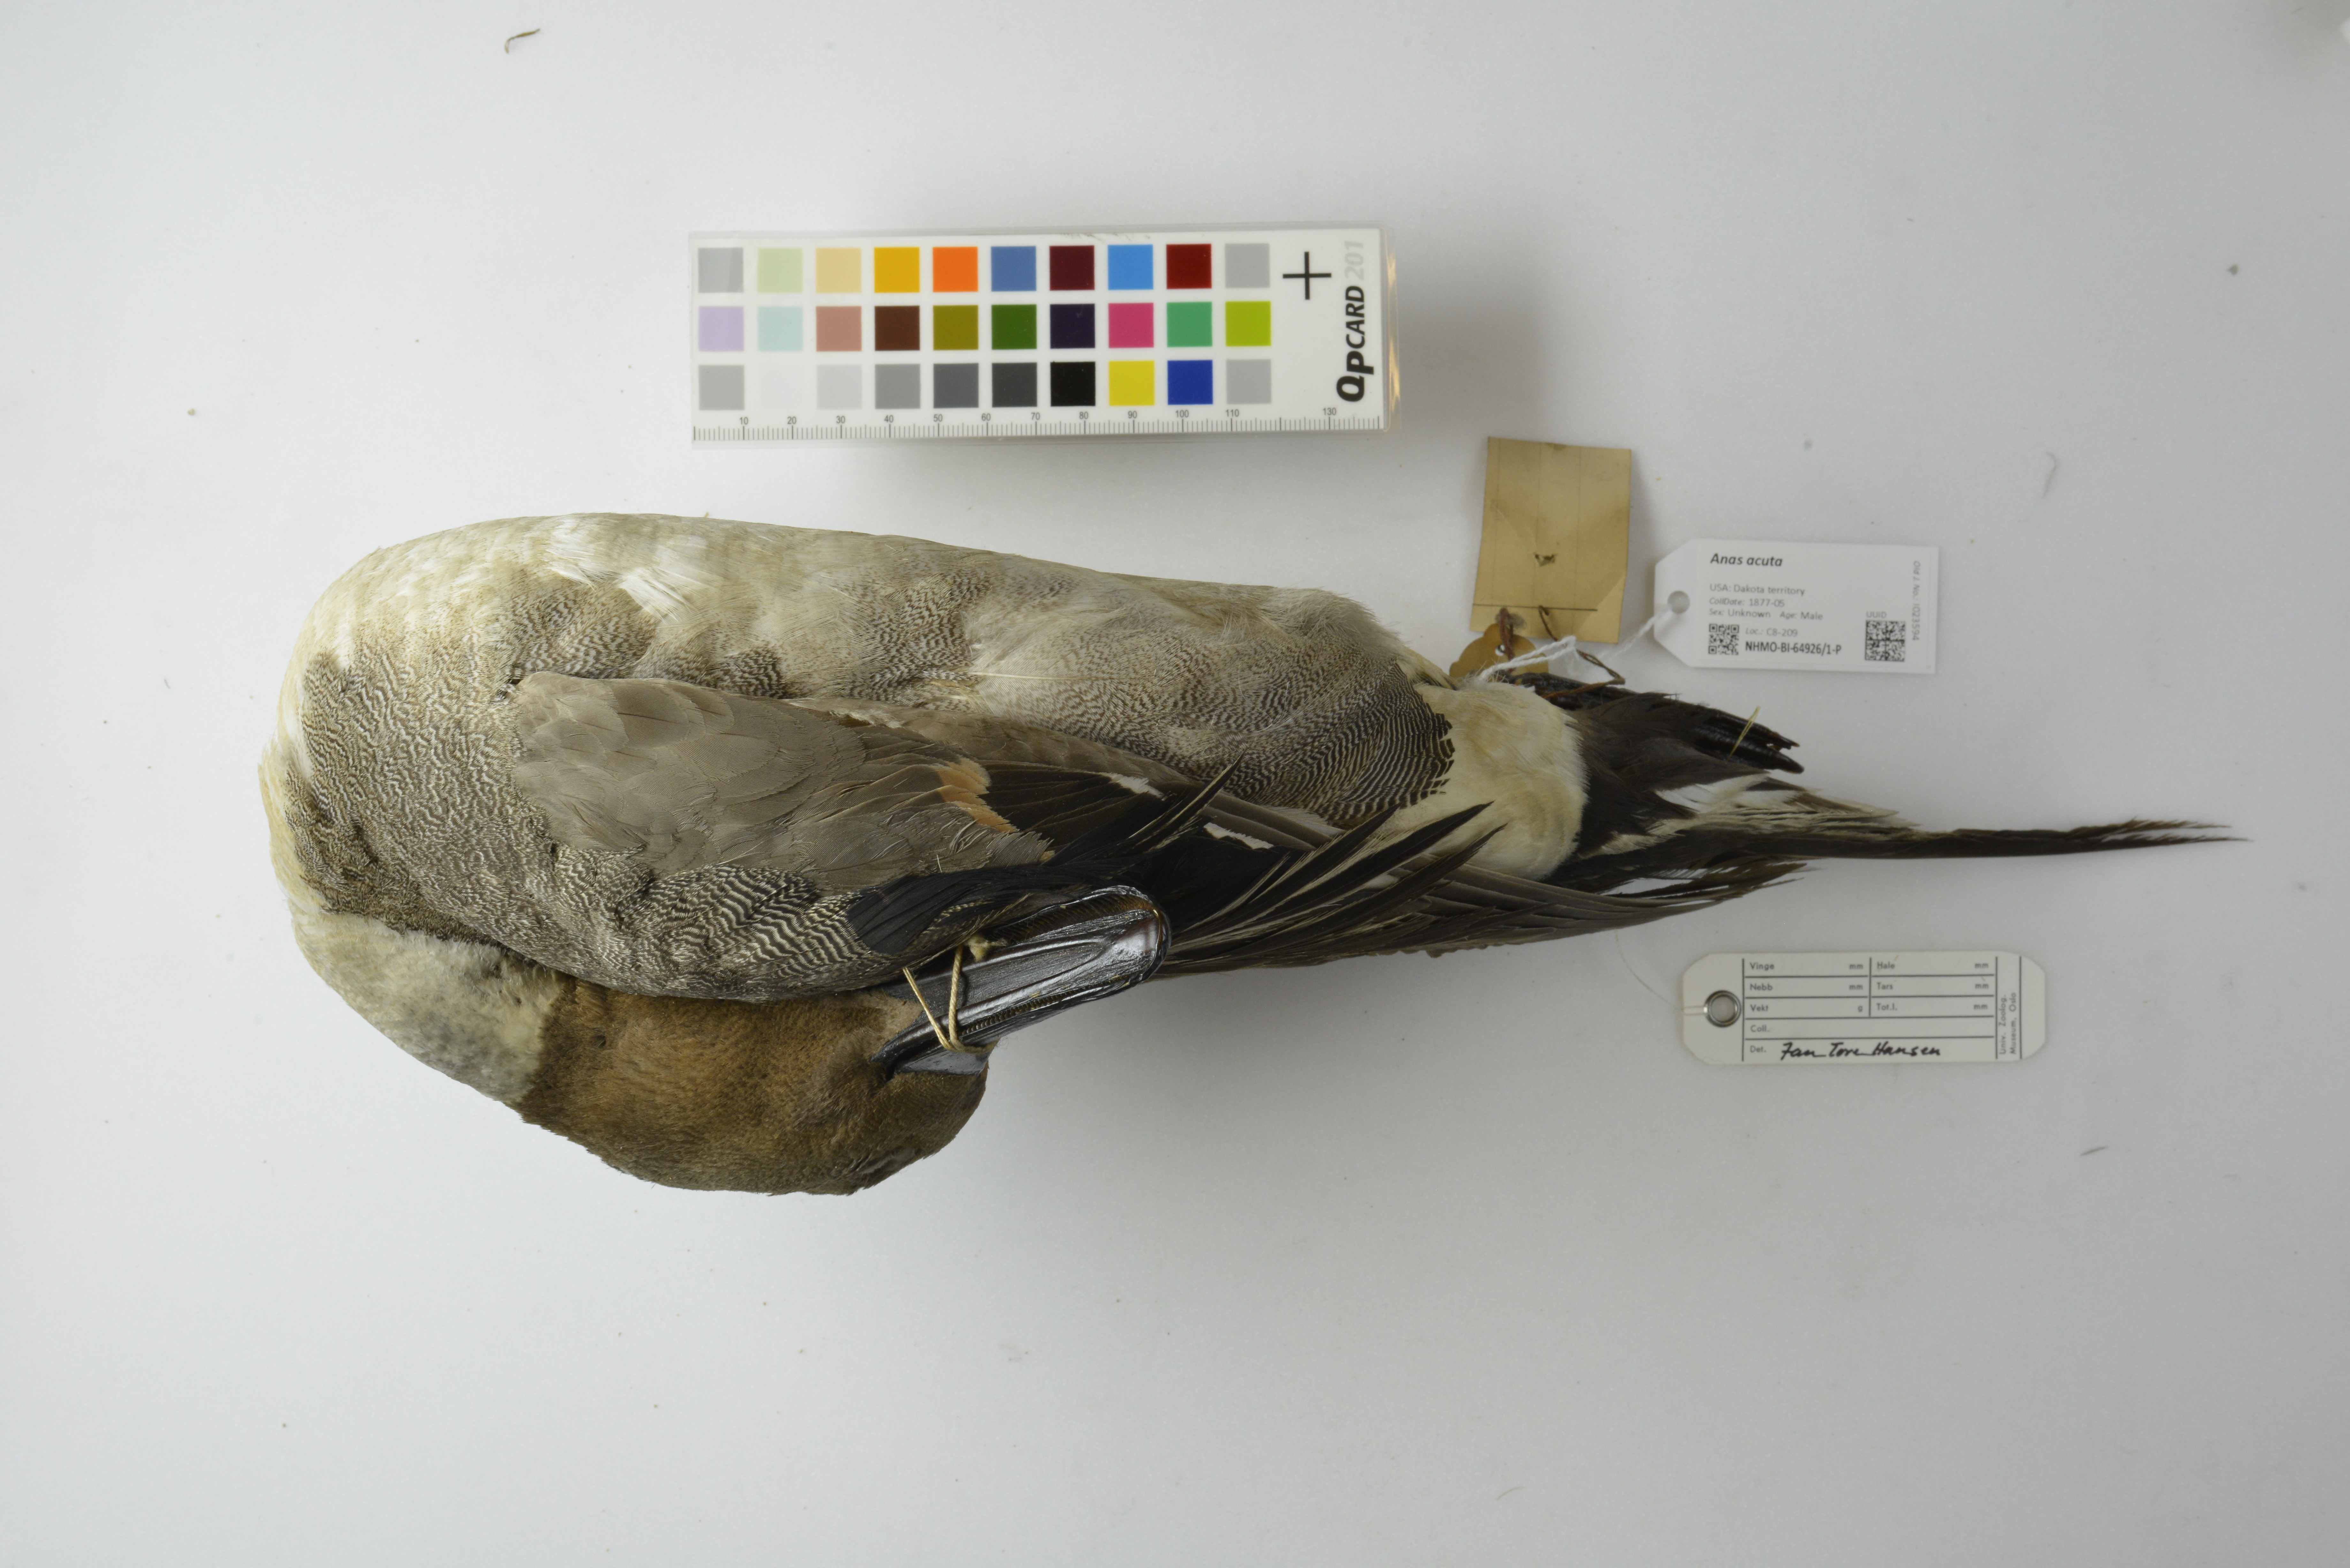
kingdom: Animalia
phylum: Chordata
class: Aves
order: Anseriformes
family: Anatidae
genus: Anas
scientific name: Anas acuta
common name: Northern pintail
